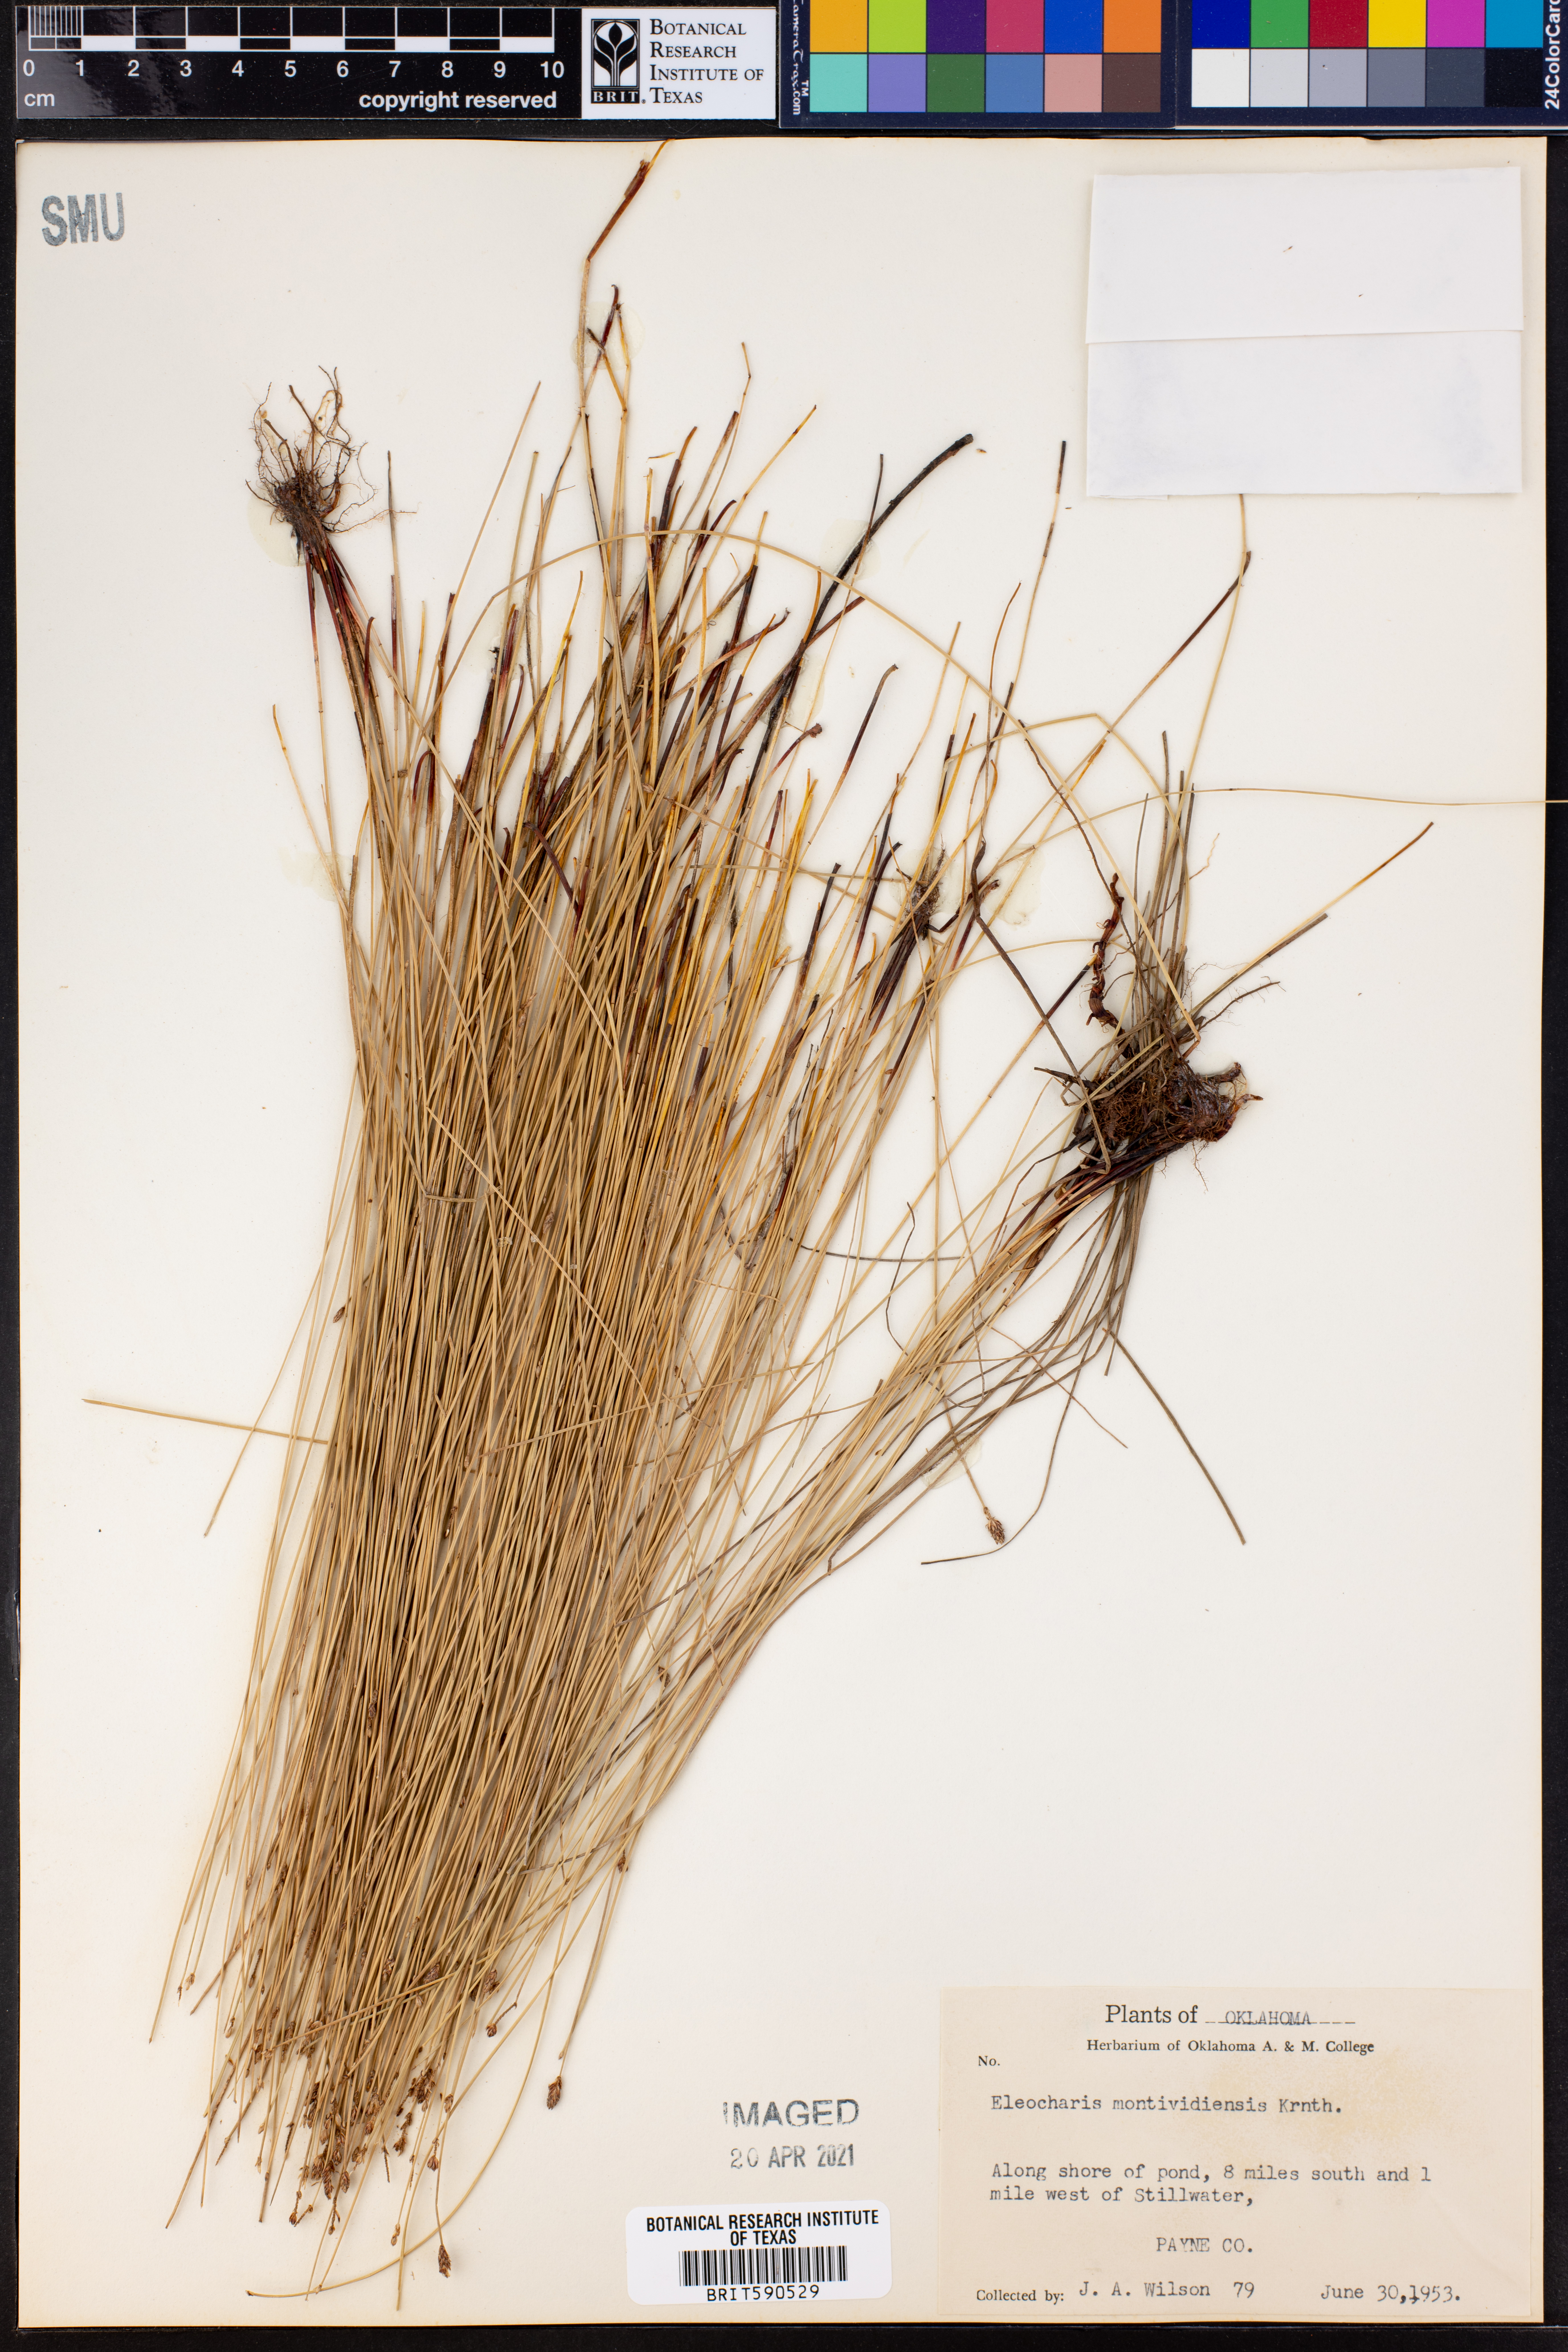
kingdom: Plantae
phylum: Tracheophyta
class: Liliopsida
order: Poales
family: Cyperaceae
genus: Eleocharis
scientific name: Eleocharis montevidensis
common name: Sand spike-rush
